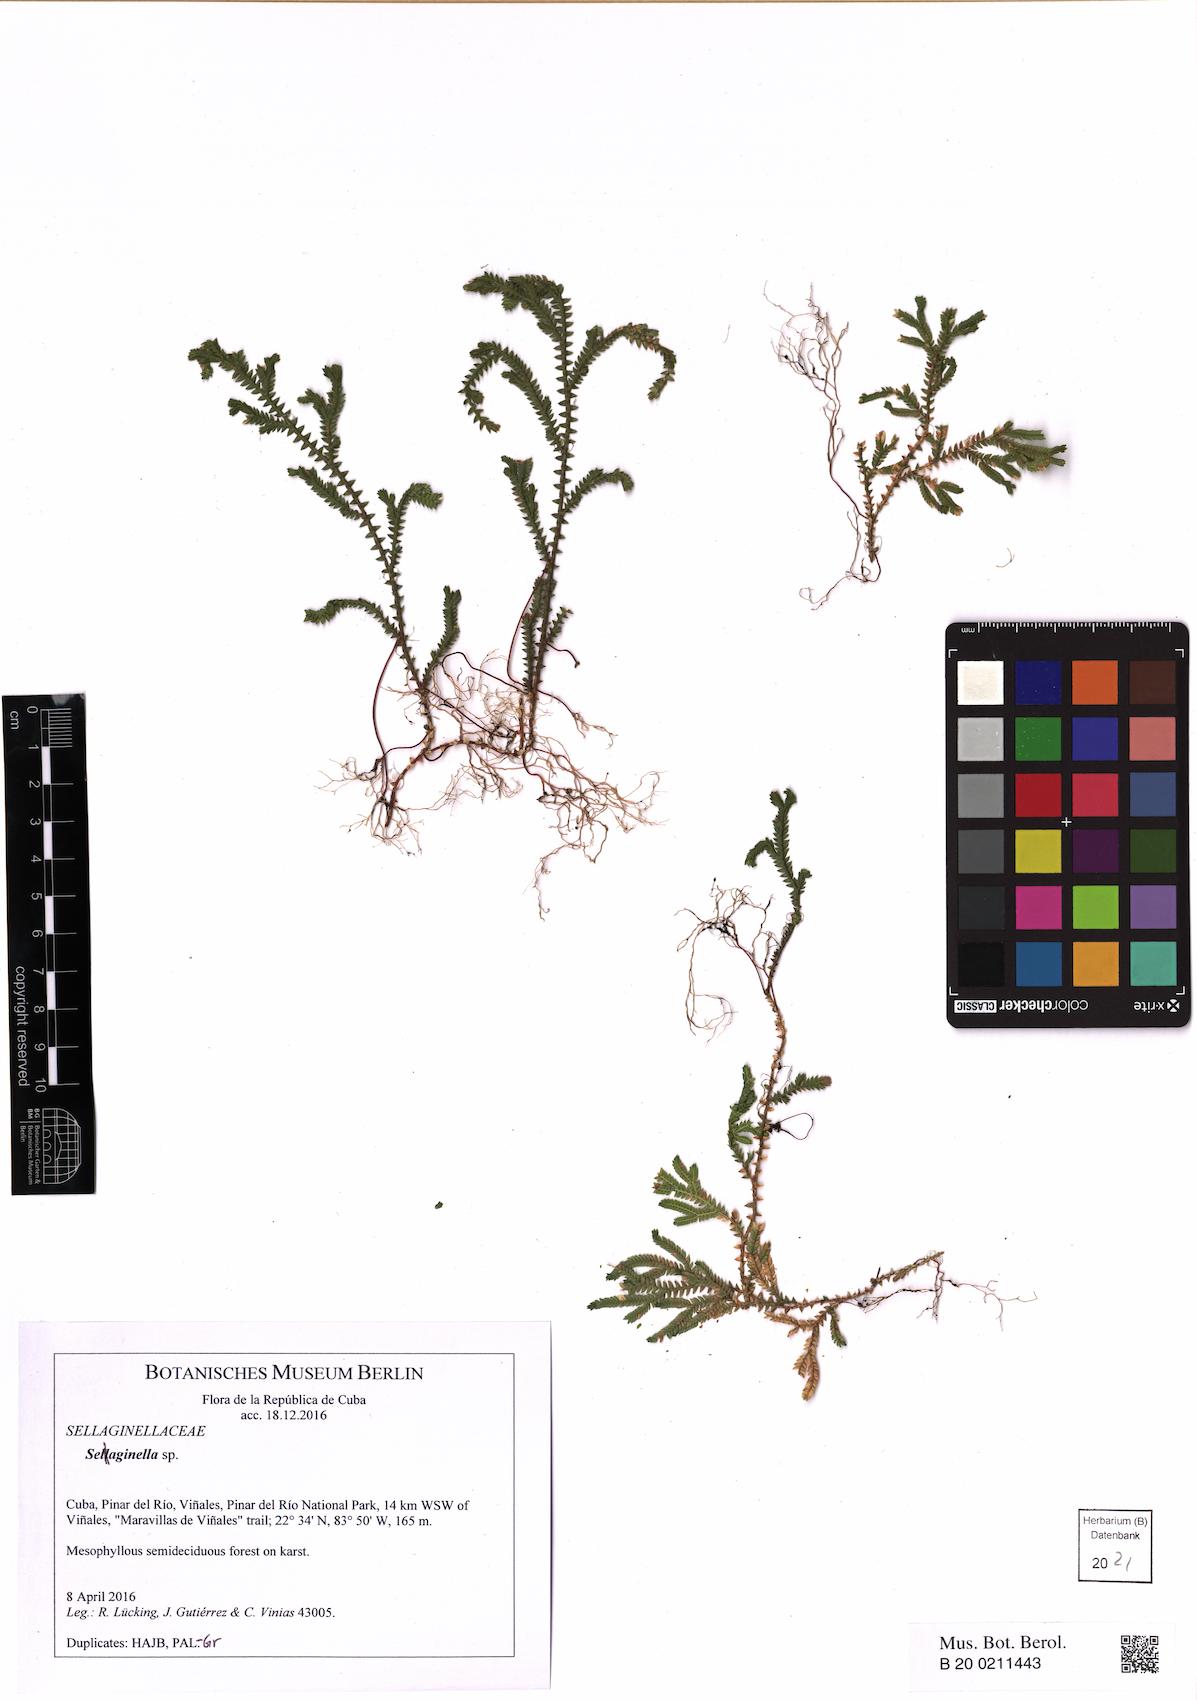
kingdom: Plantae
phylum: Tracheophyta
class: Lycopodiopsida
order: Selaginellales
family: Selaginellaceae
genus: Selaginella
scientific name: Selaginella plumosa
